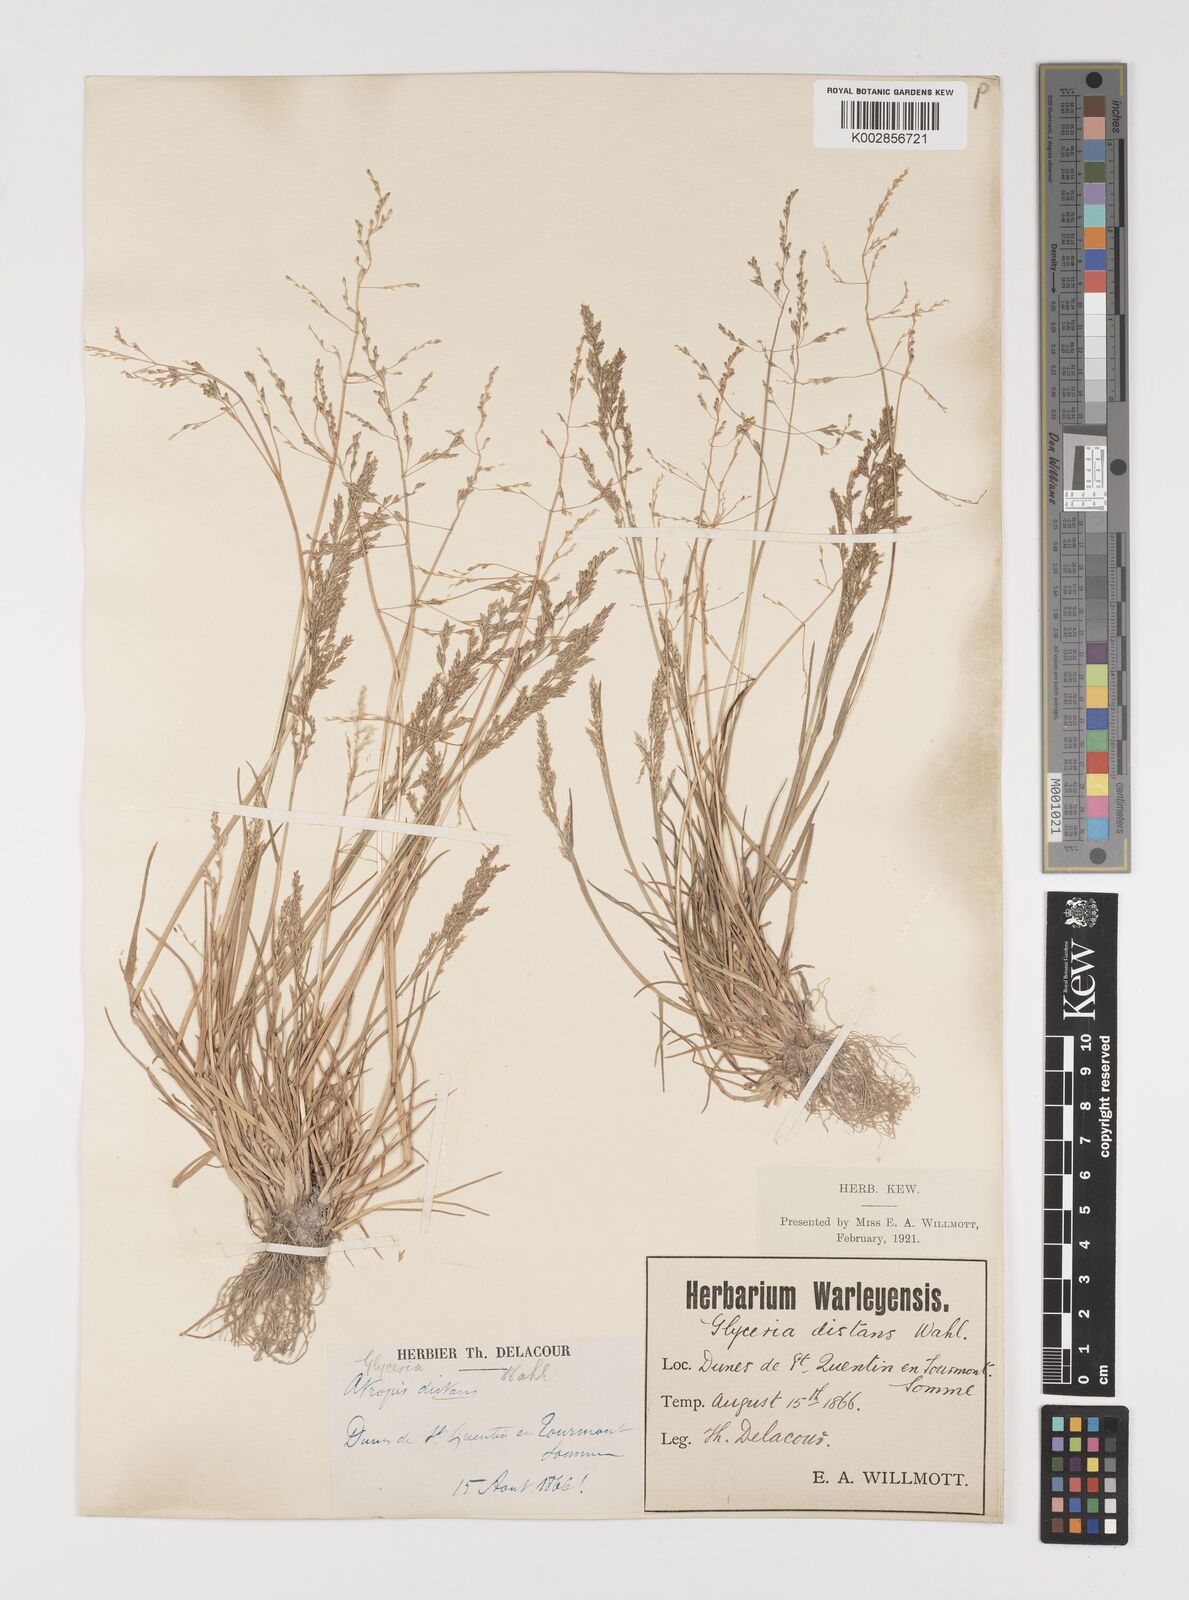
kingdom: Plantae
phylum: Tracheophyta
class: Liliopsida
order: Poales
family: Poaceae
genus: Puccinellia
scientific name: Puccinellia
